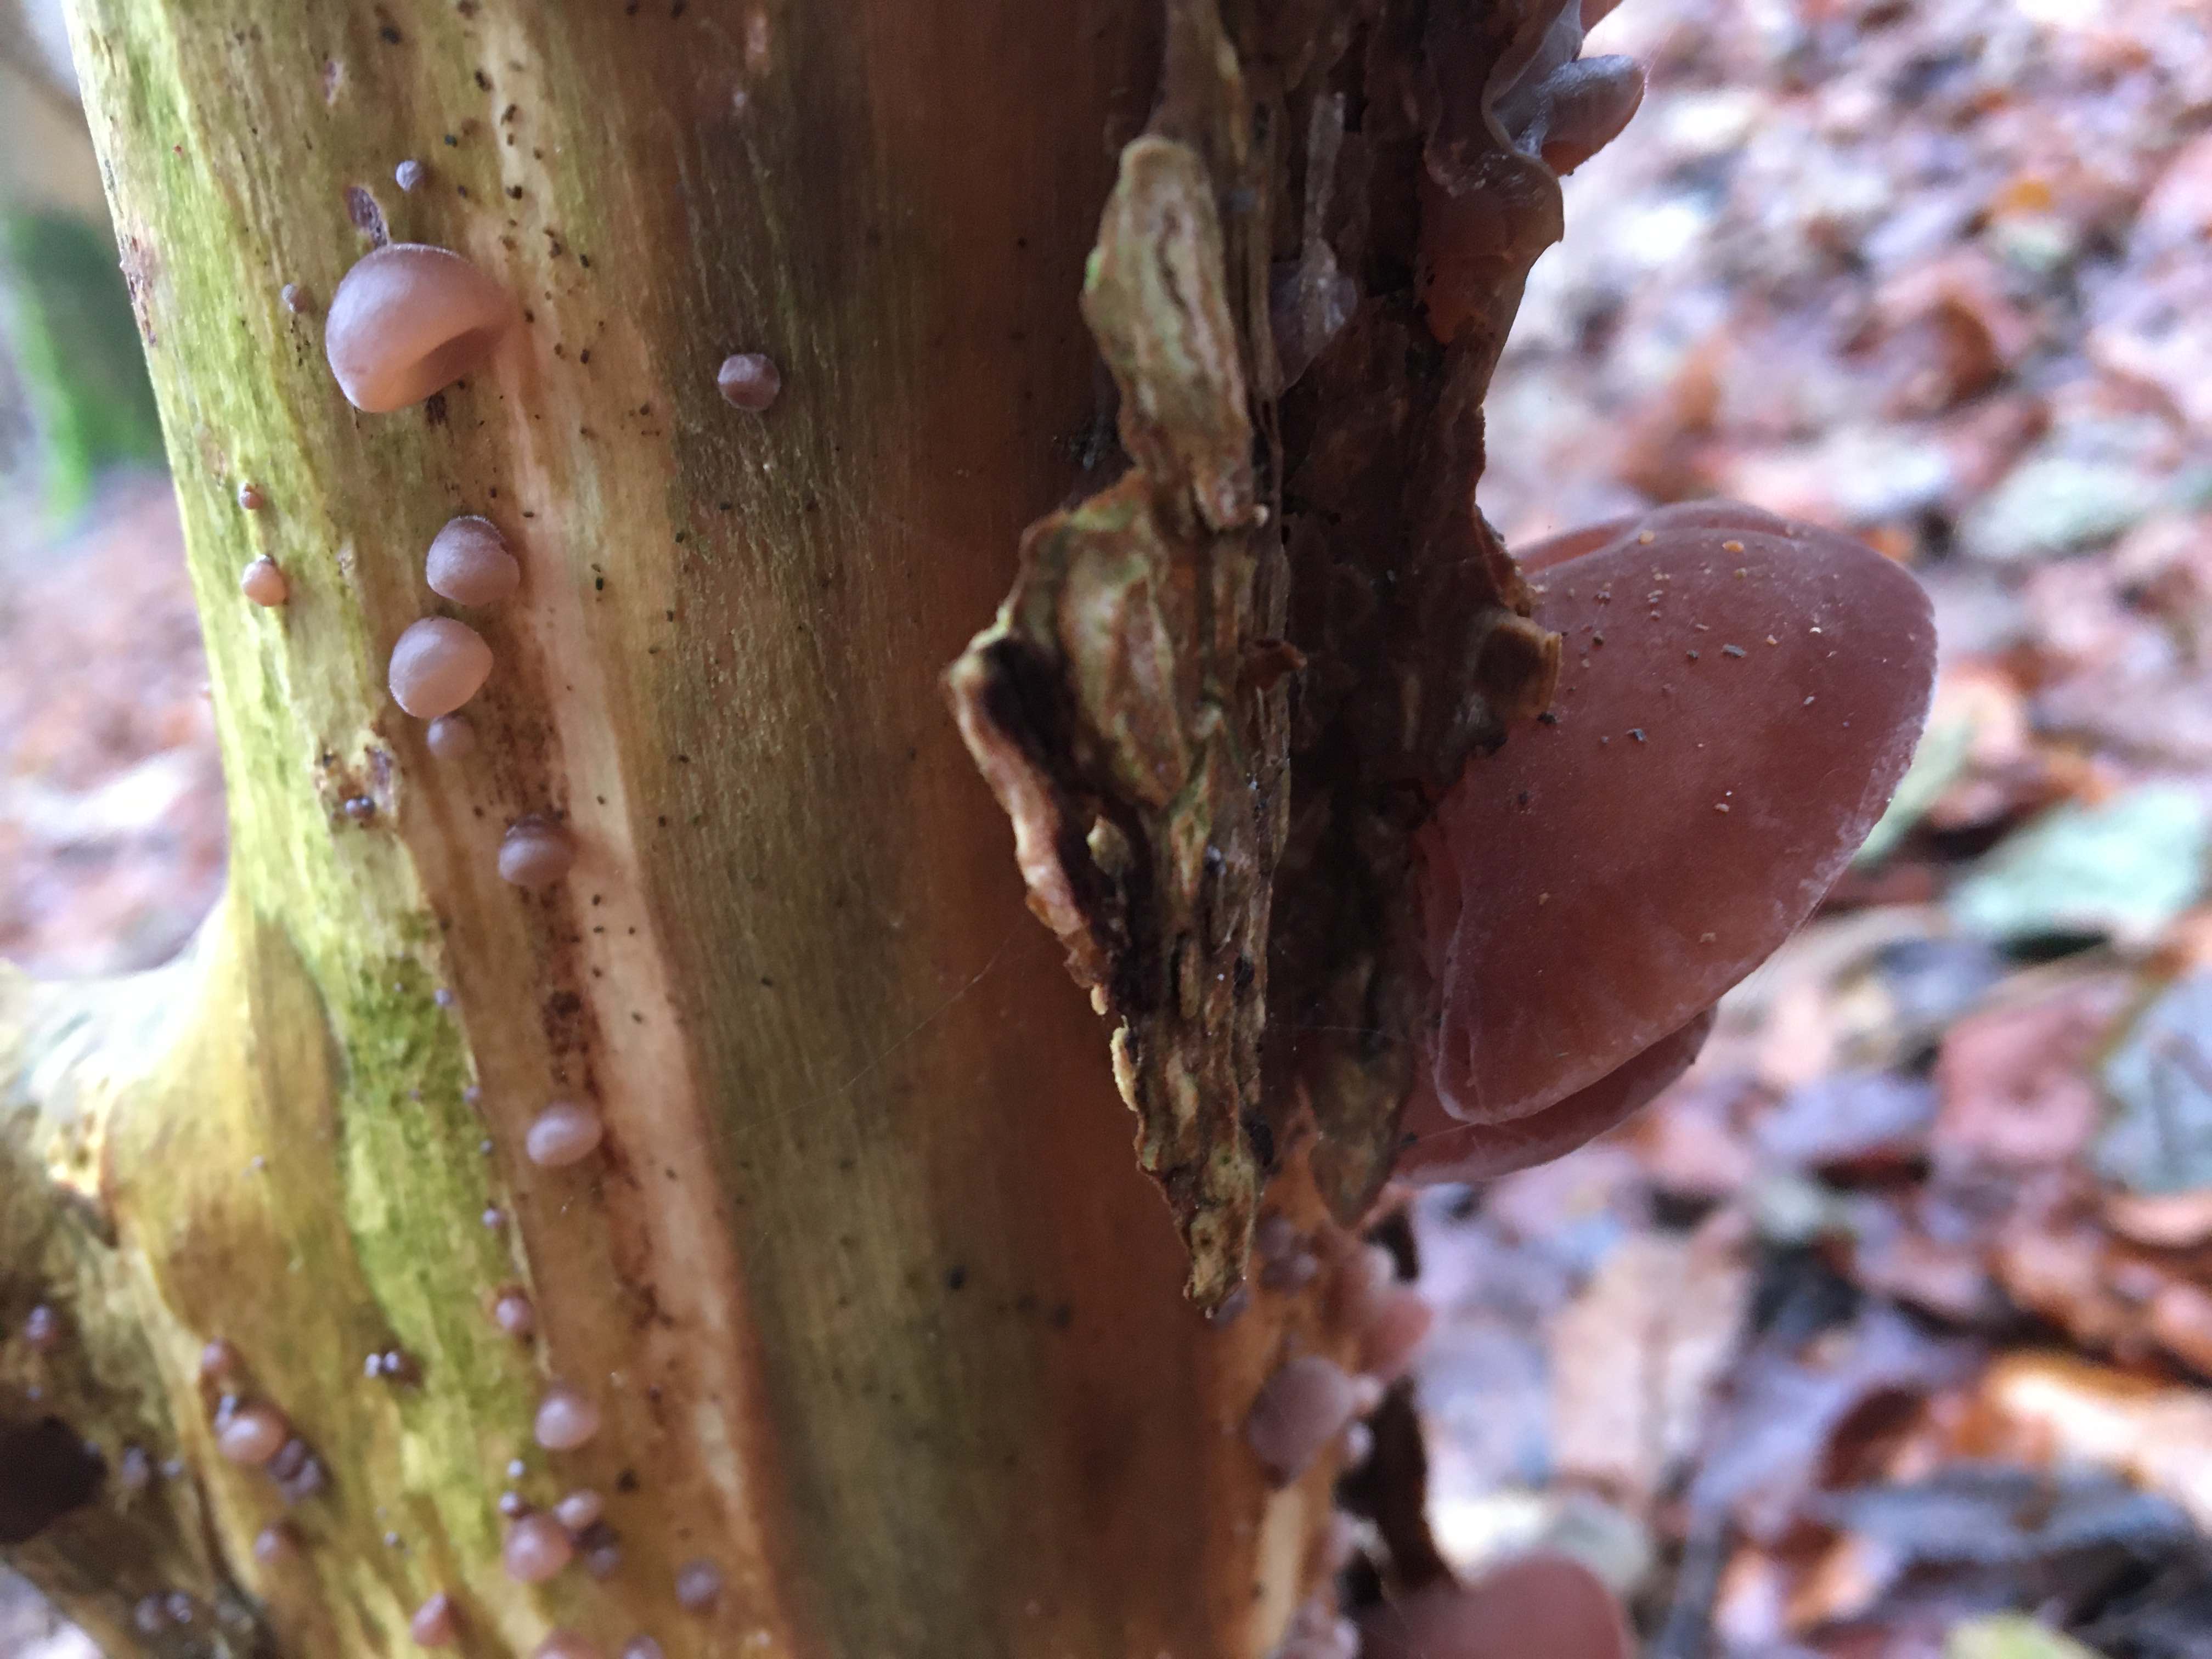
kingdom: Fungi
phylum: Basidiomycota
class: Agaricomycetes
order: Auriculariales
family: Auriculariaceae
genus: Auricularia
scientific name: Auricularia auricula-judae
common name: almindelig judasøre
